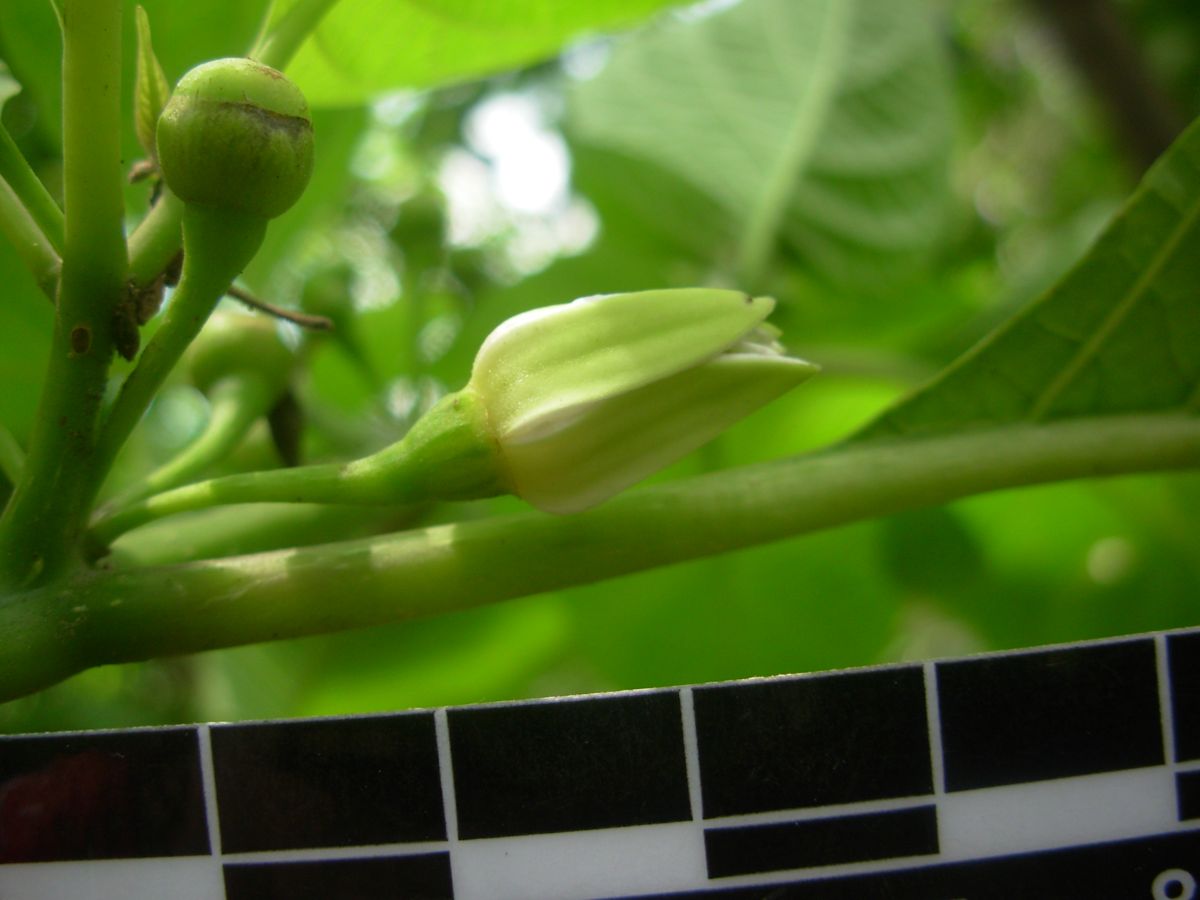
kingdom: Plantae
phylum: Tracheophyta
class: Magnoliopsida
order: Solanales
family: Solanaceae
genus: Lycianthes
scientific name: Lycianthes heteroclita
